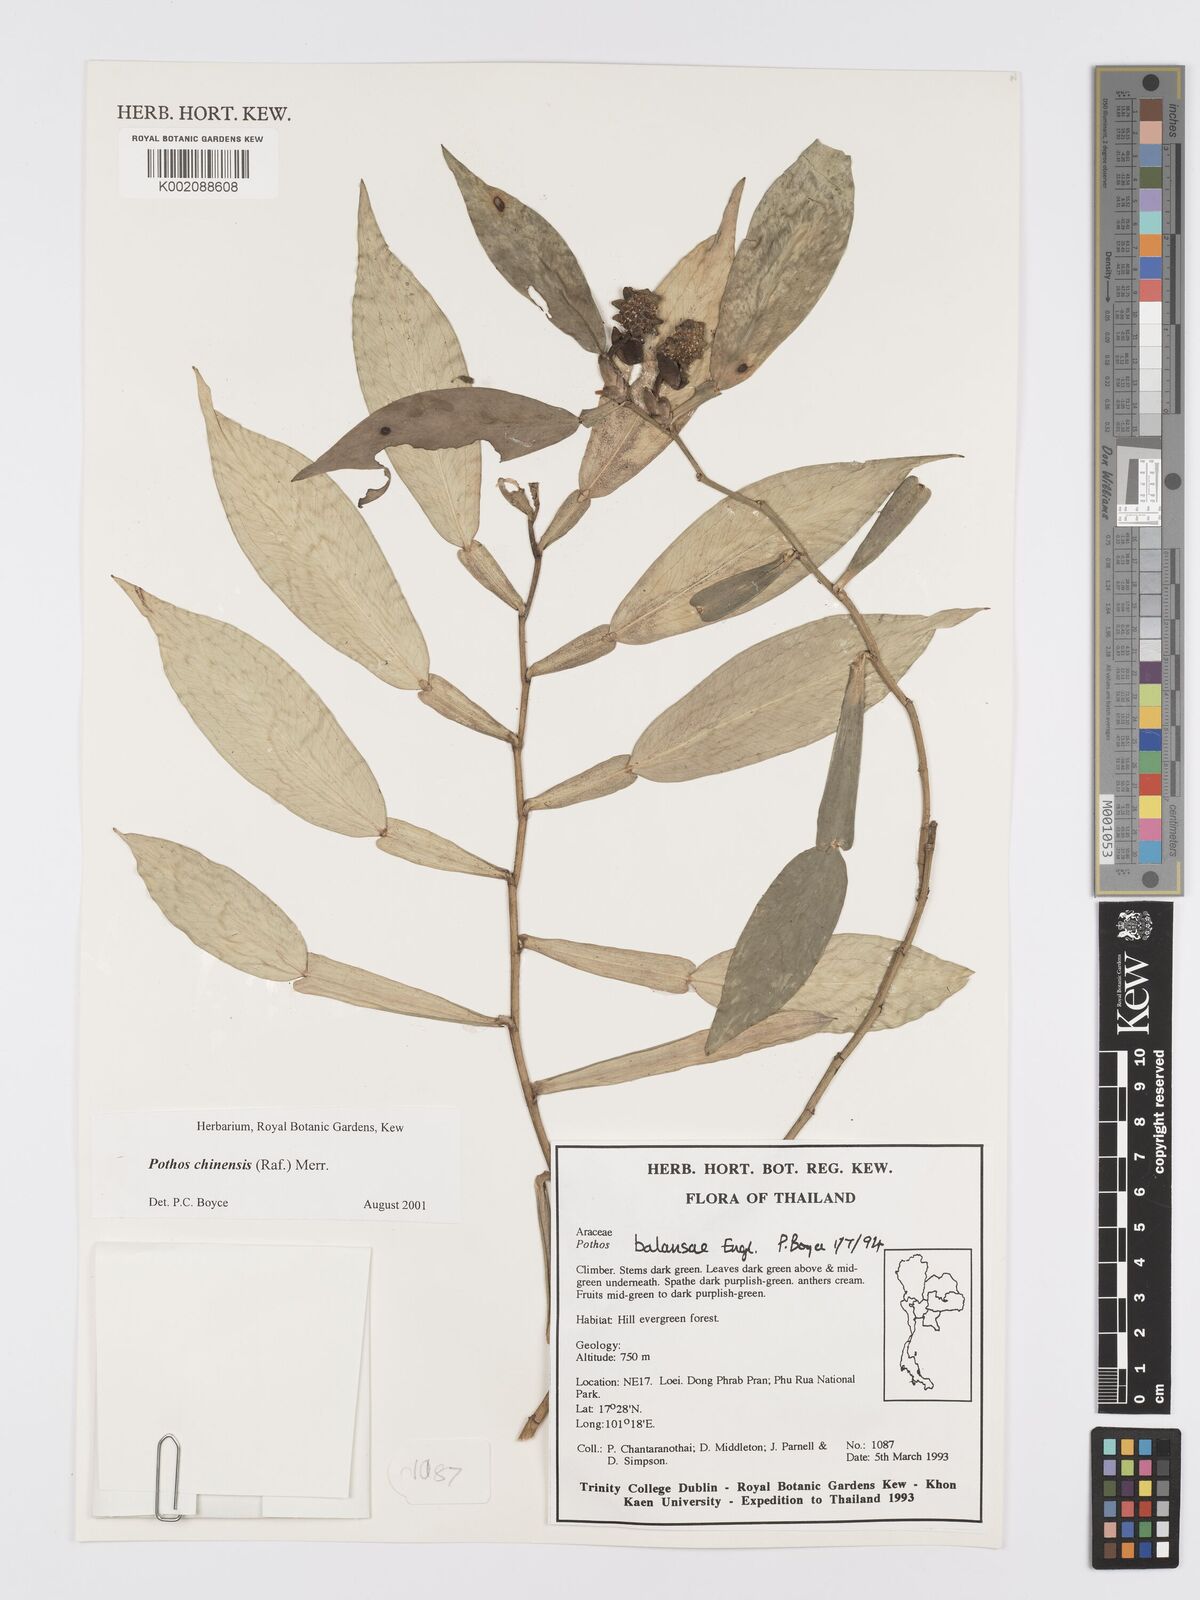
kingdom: Plantae
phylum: Tracheophyta
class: Liliopsida
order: Alismatales
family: Araceae
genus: Pothos
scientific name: Pothos chinensis
